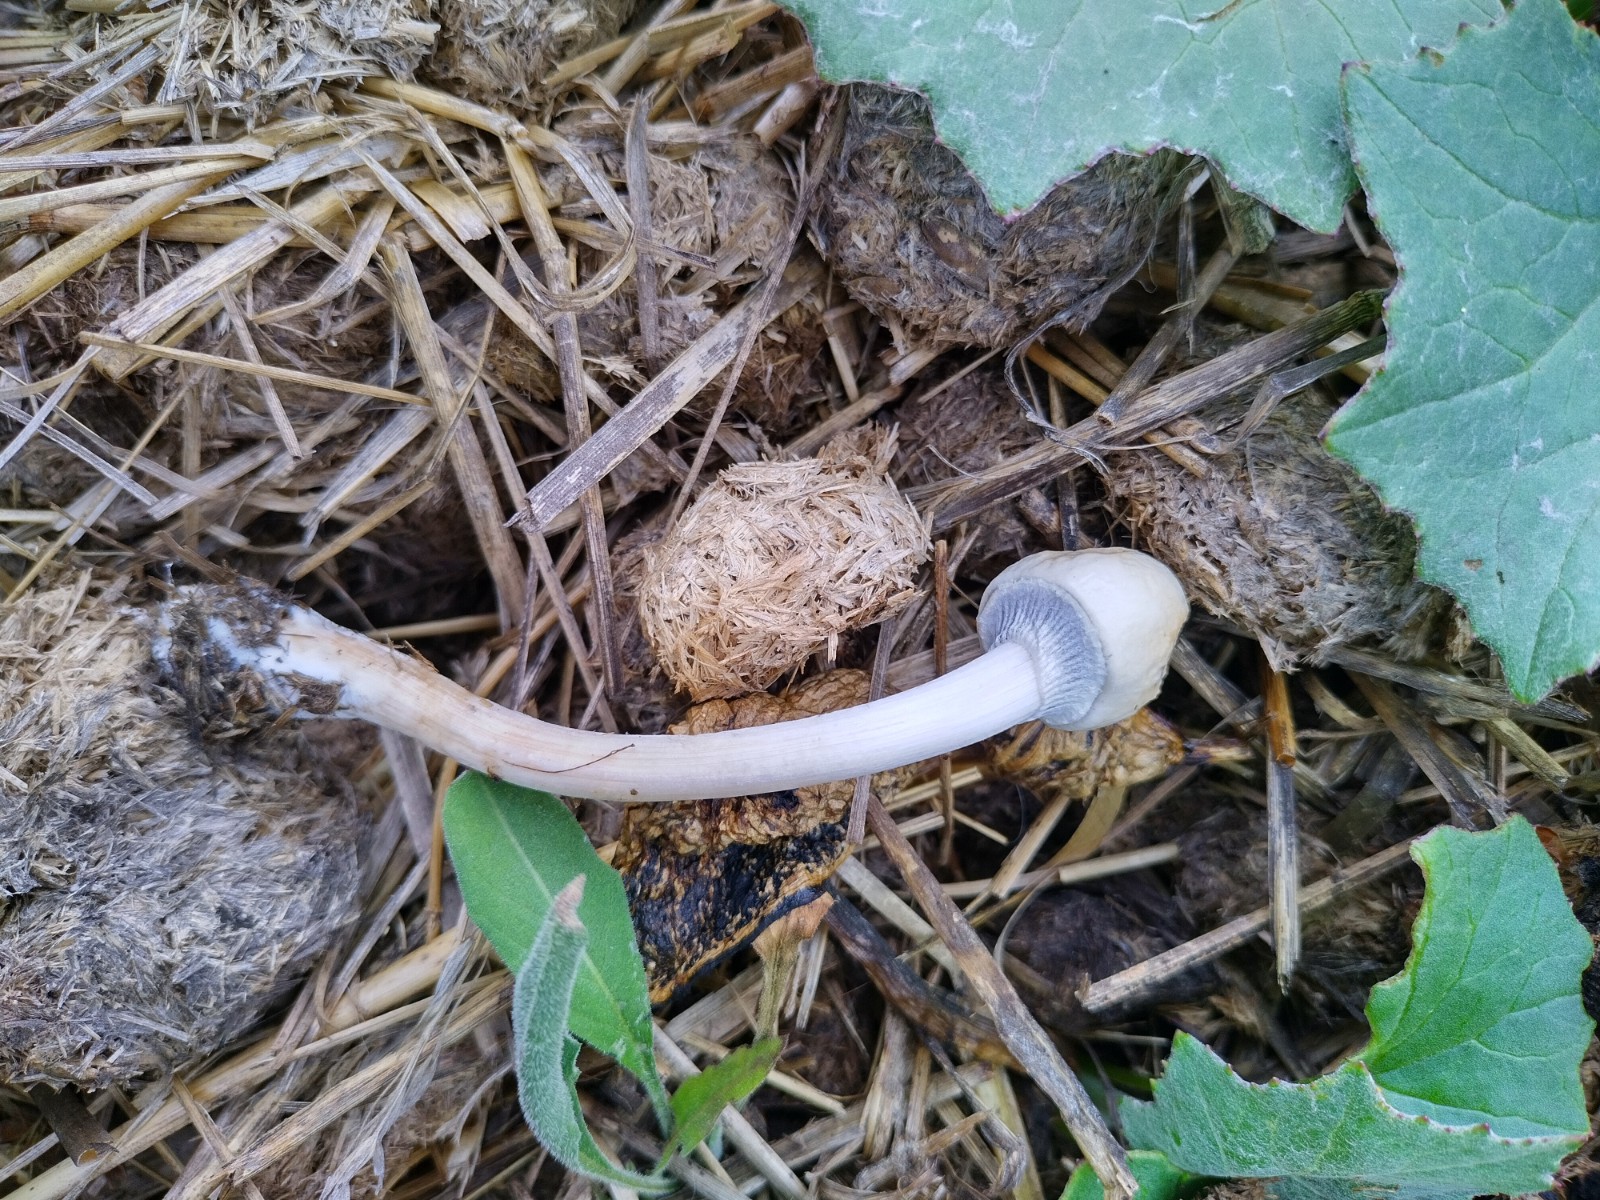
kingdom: Fungi
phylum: Basidiomycota
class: Agaricomycetes
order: Agaricales
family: Bolbitiaceae
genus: Panaeolus
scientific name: Panaeolus semiovatus
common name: ring-glanshat
